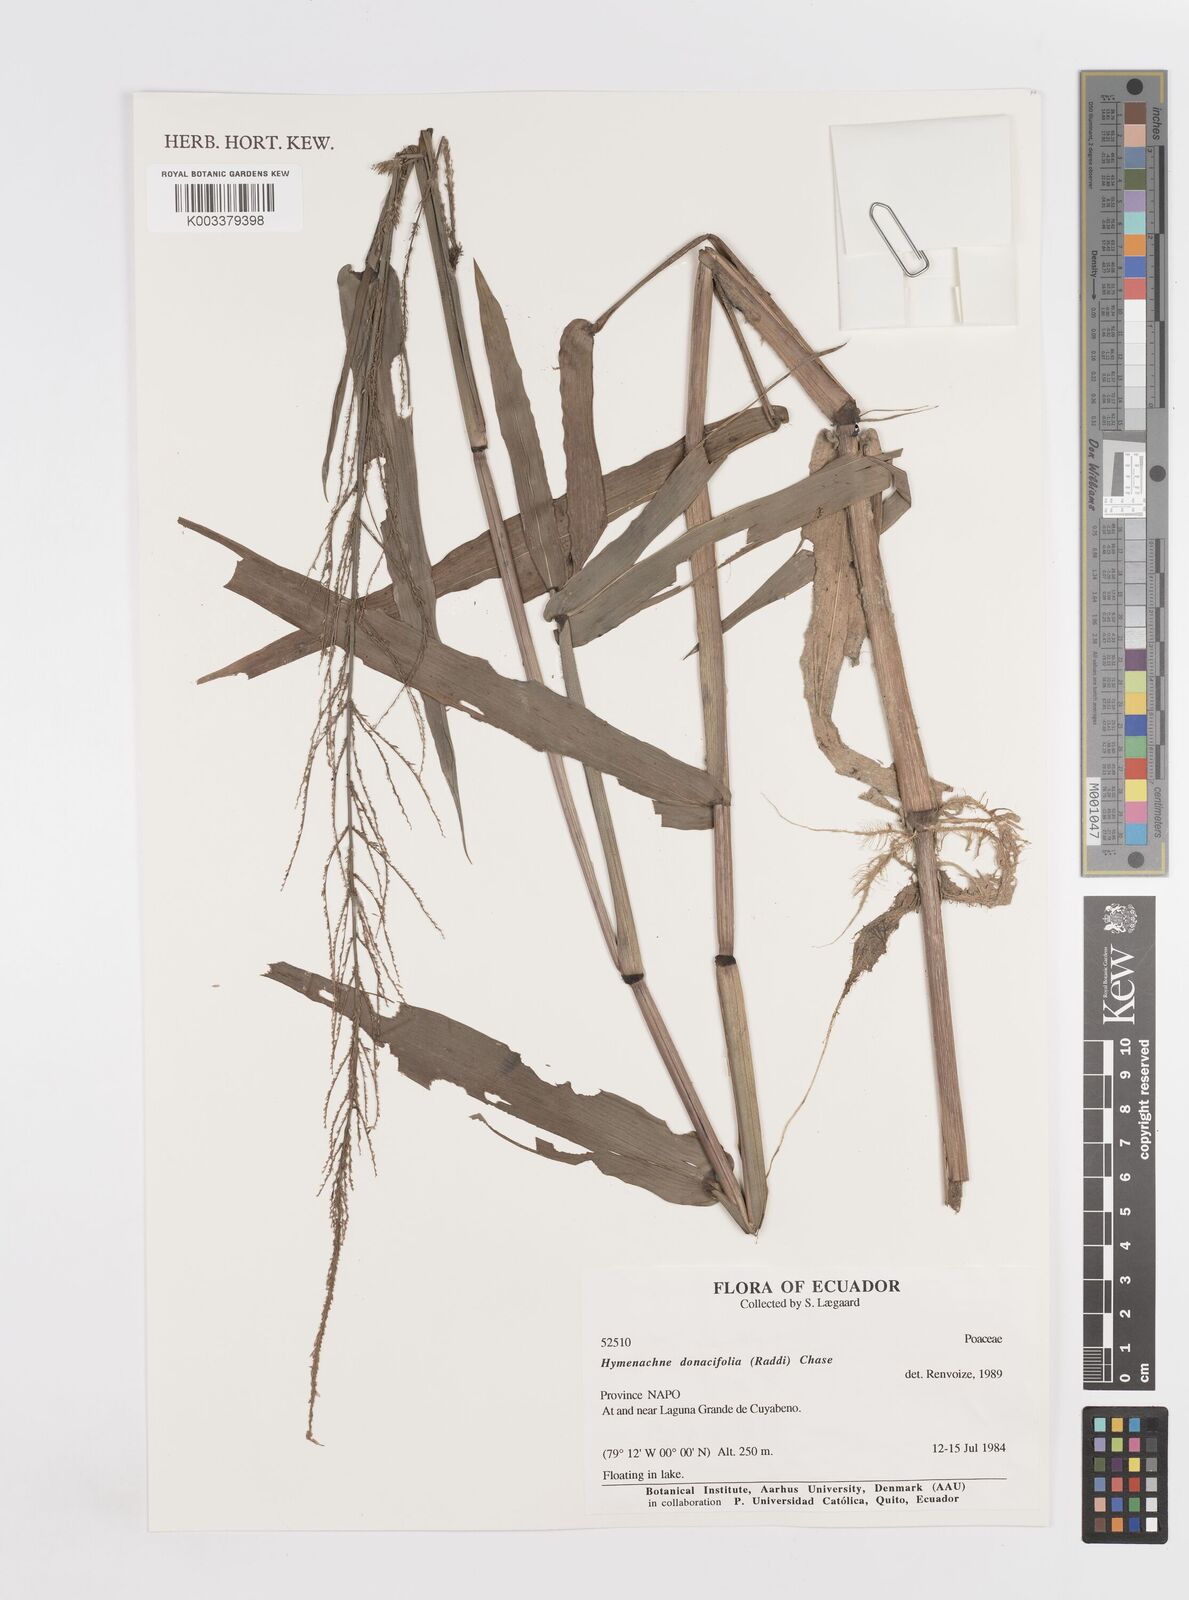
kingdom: Plantae
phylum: Tracheophyta
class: Liliopsida
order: Poales
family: Poaceae
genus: Hymenachne
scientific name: Hymenachne donacifolia
